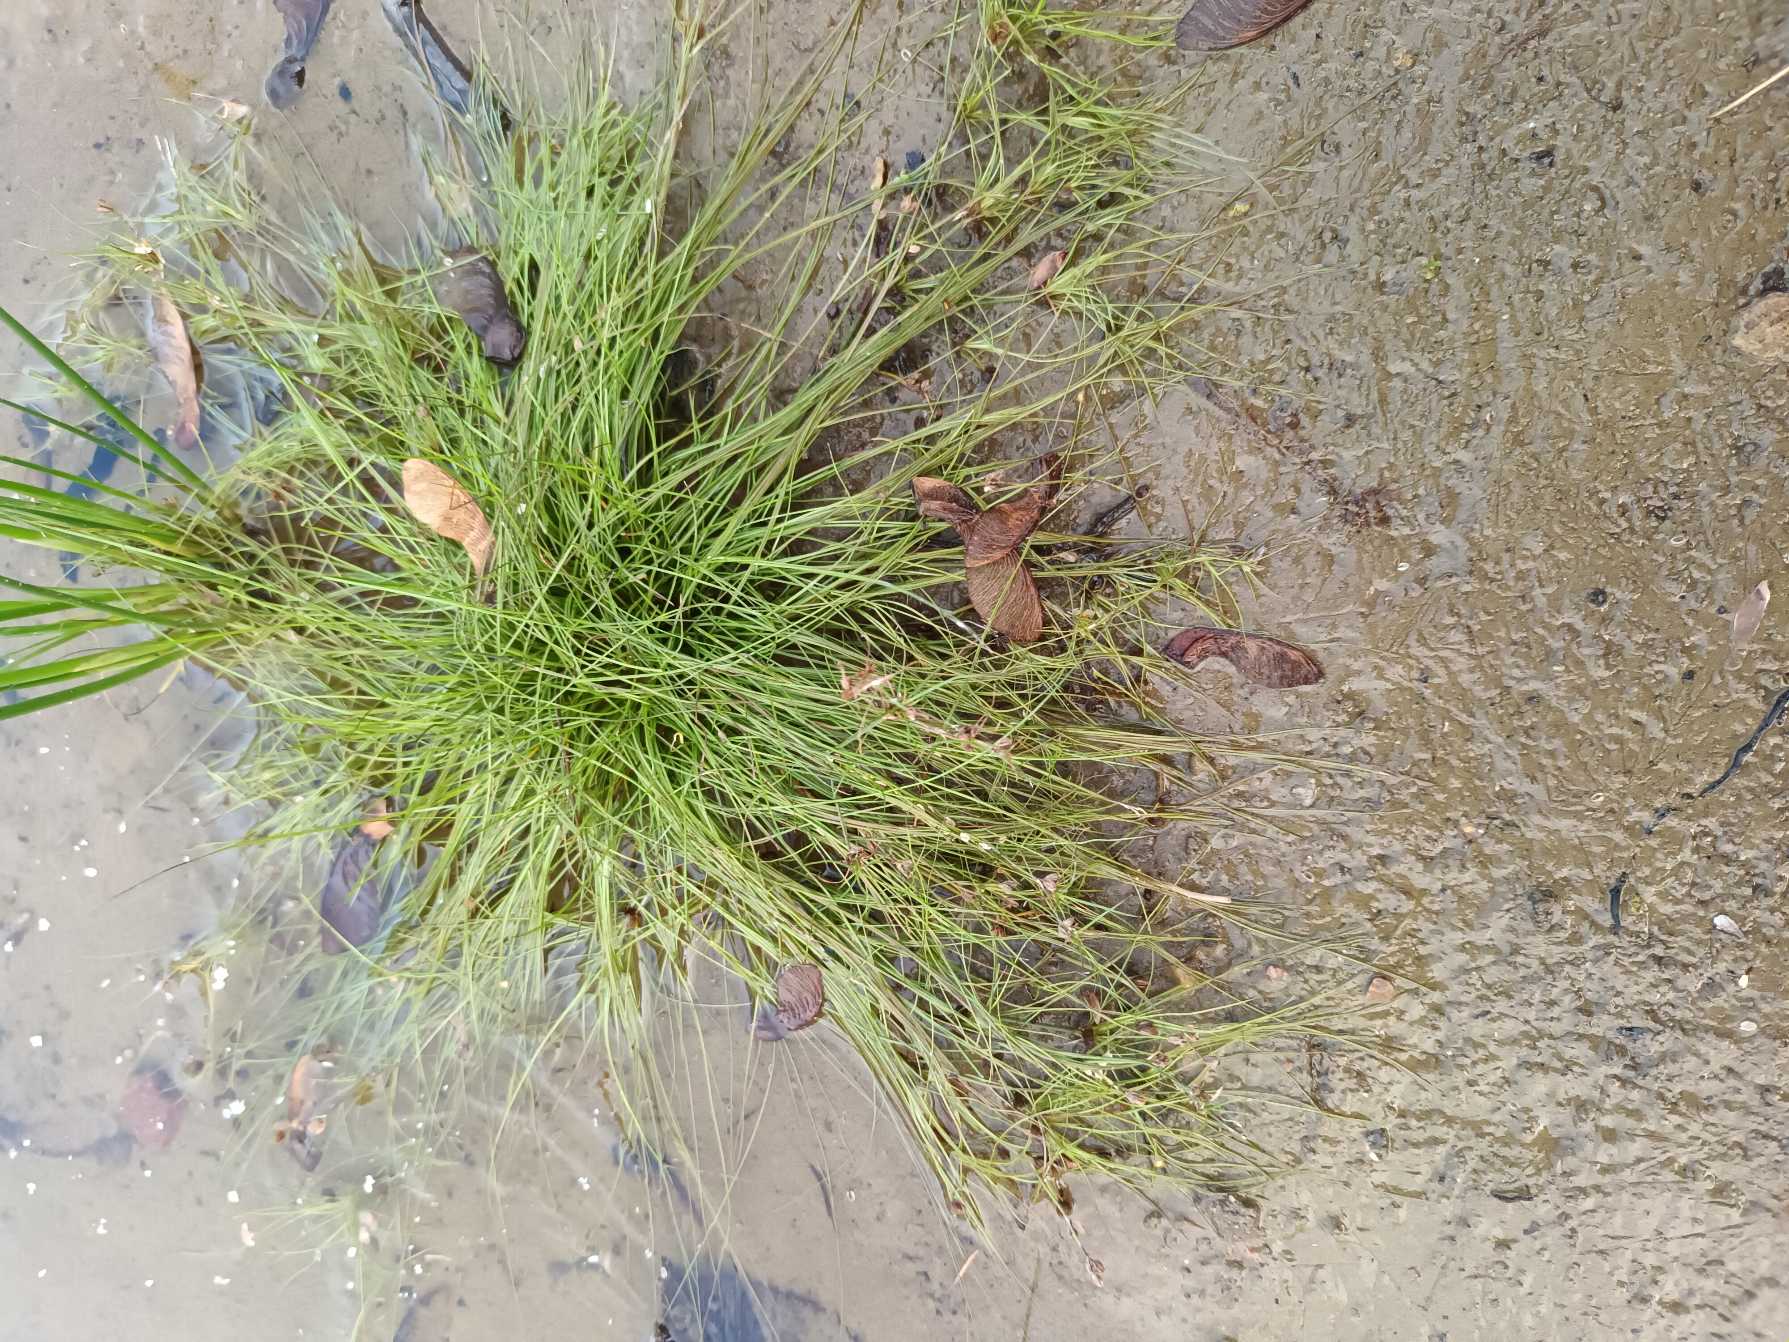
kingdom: Plantae
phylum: Tracheophyta
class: Liliopsida
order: Poales
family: Juncaceae
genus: Juncus
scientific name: Juncus bulbosus
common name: Liden siv
